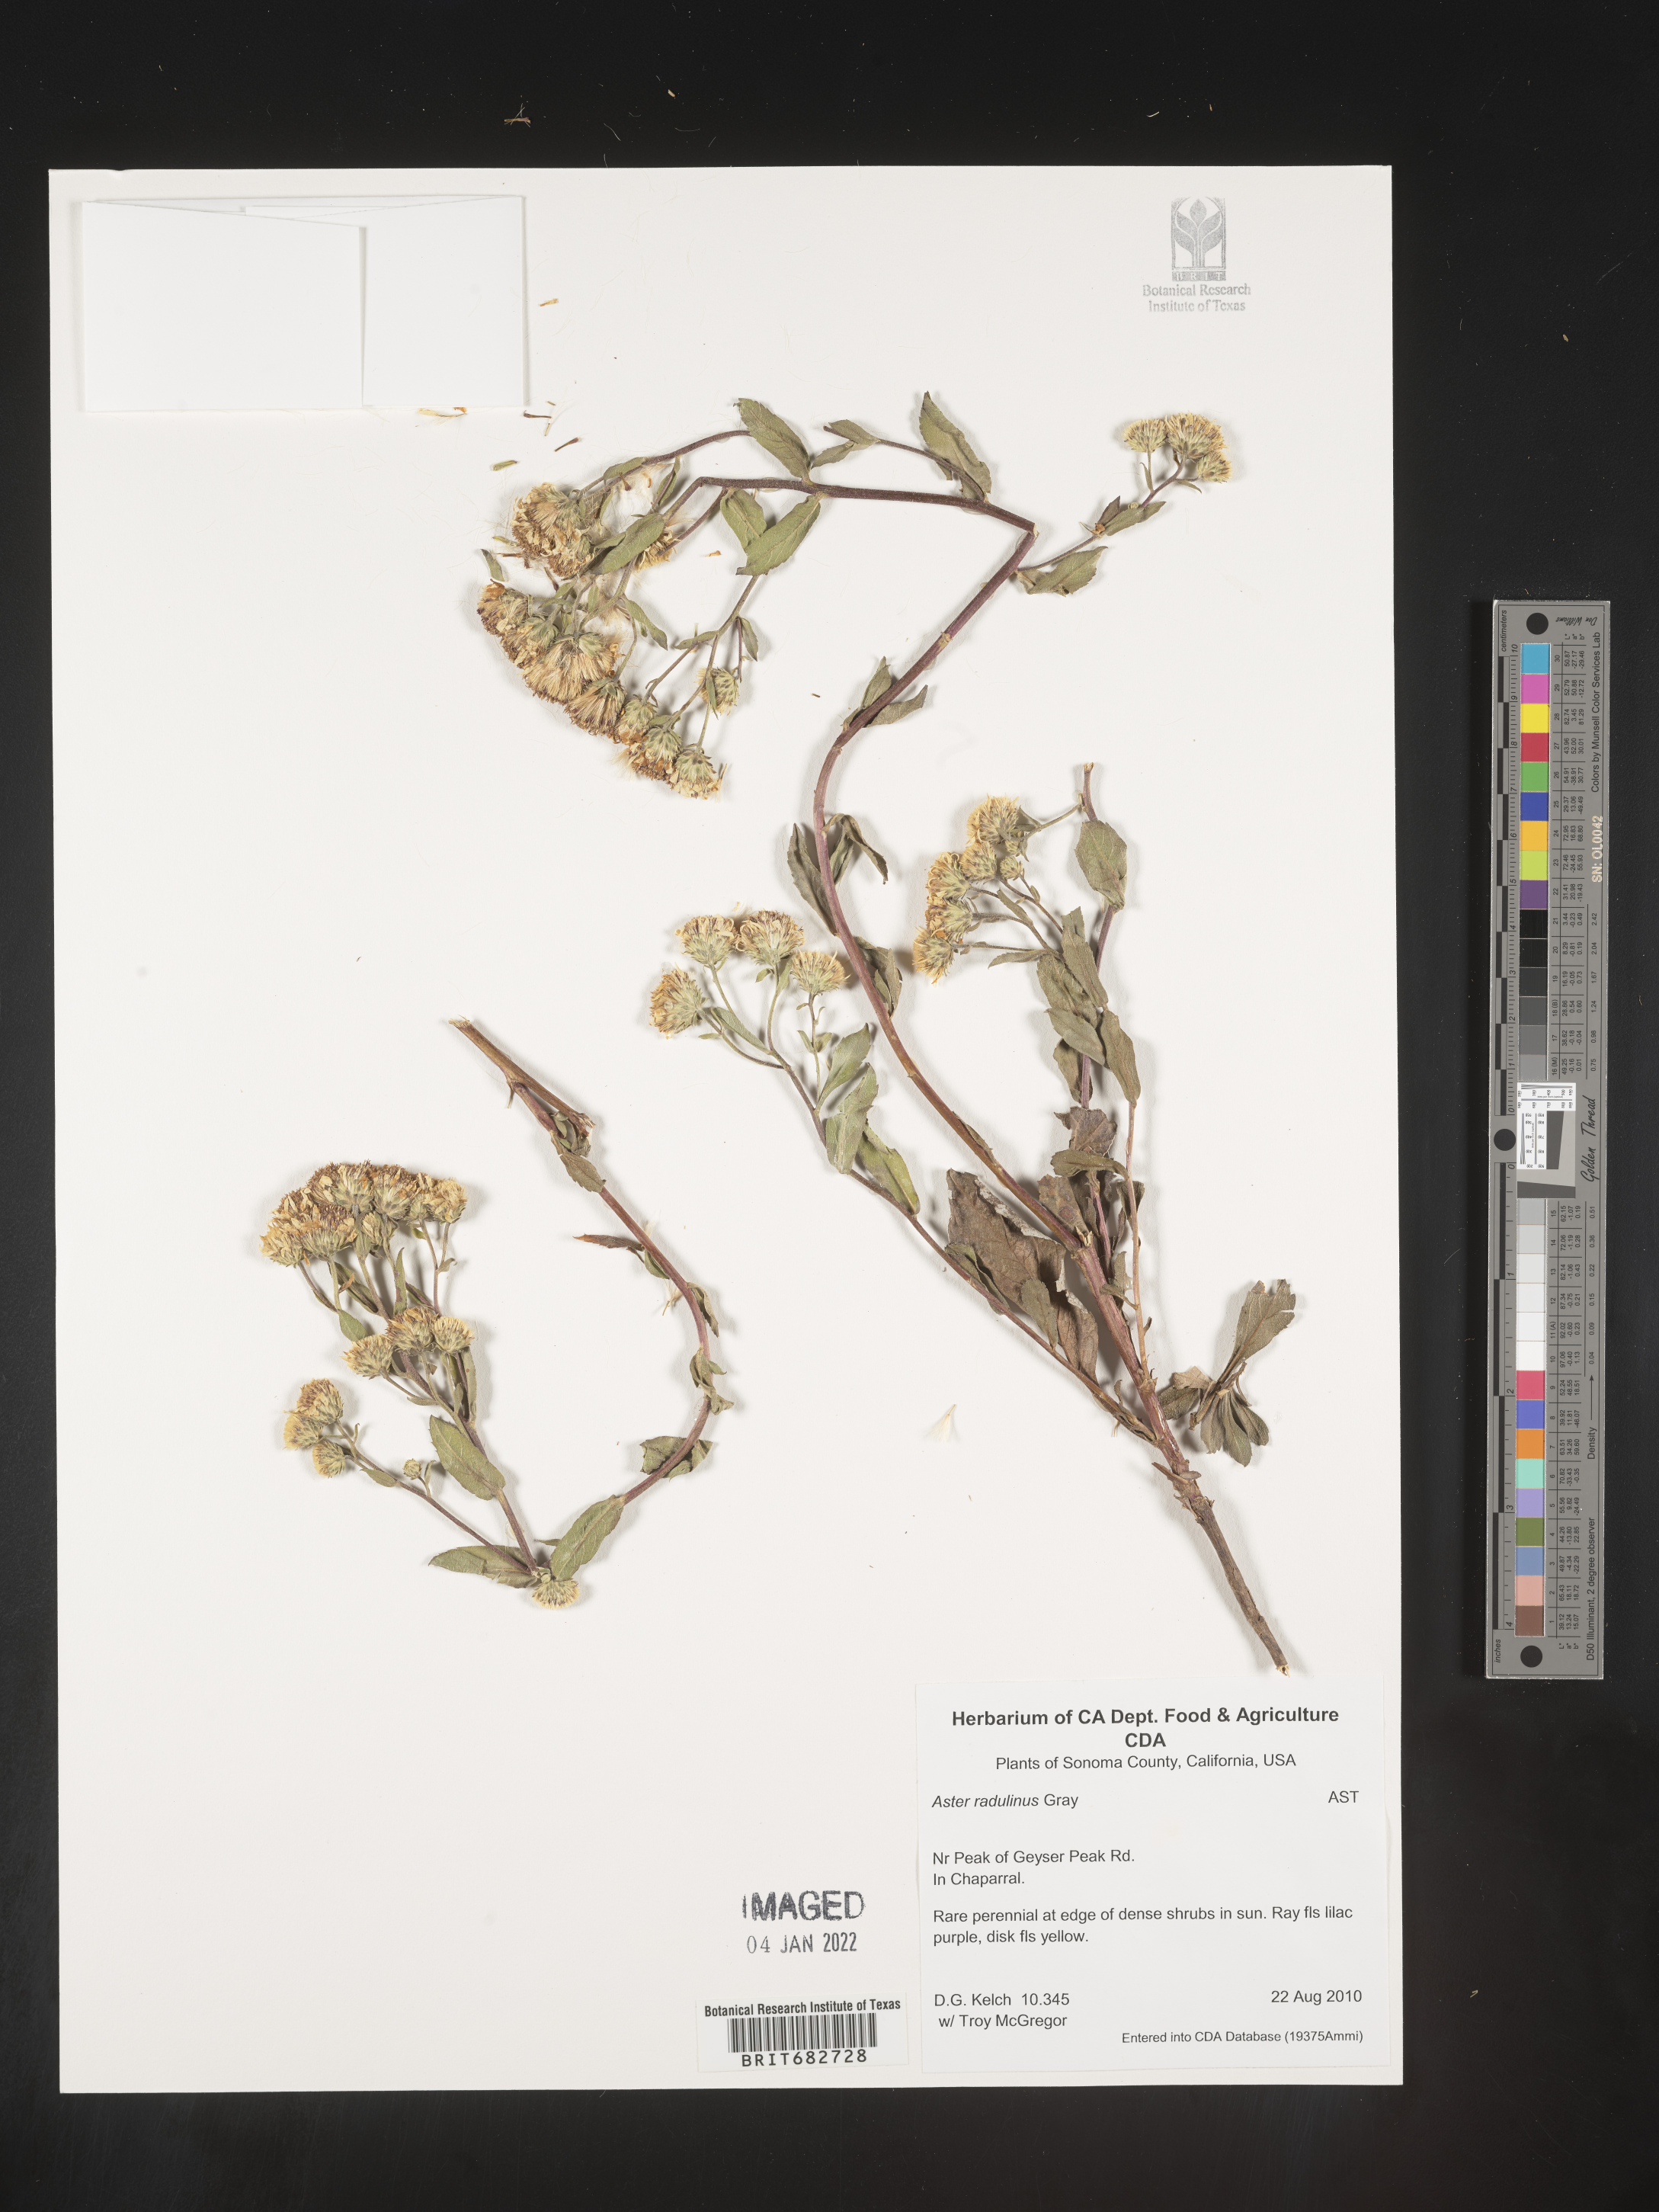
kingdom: Plantae
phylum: Tracheophyta
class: Magnoliopsida
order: Asterales
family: Asteraceae
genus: Aster
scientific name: Aster
